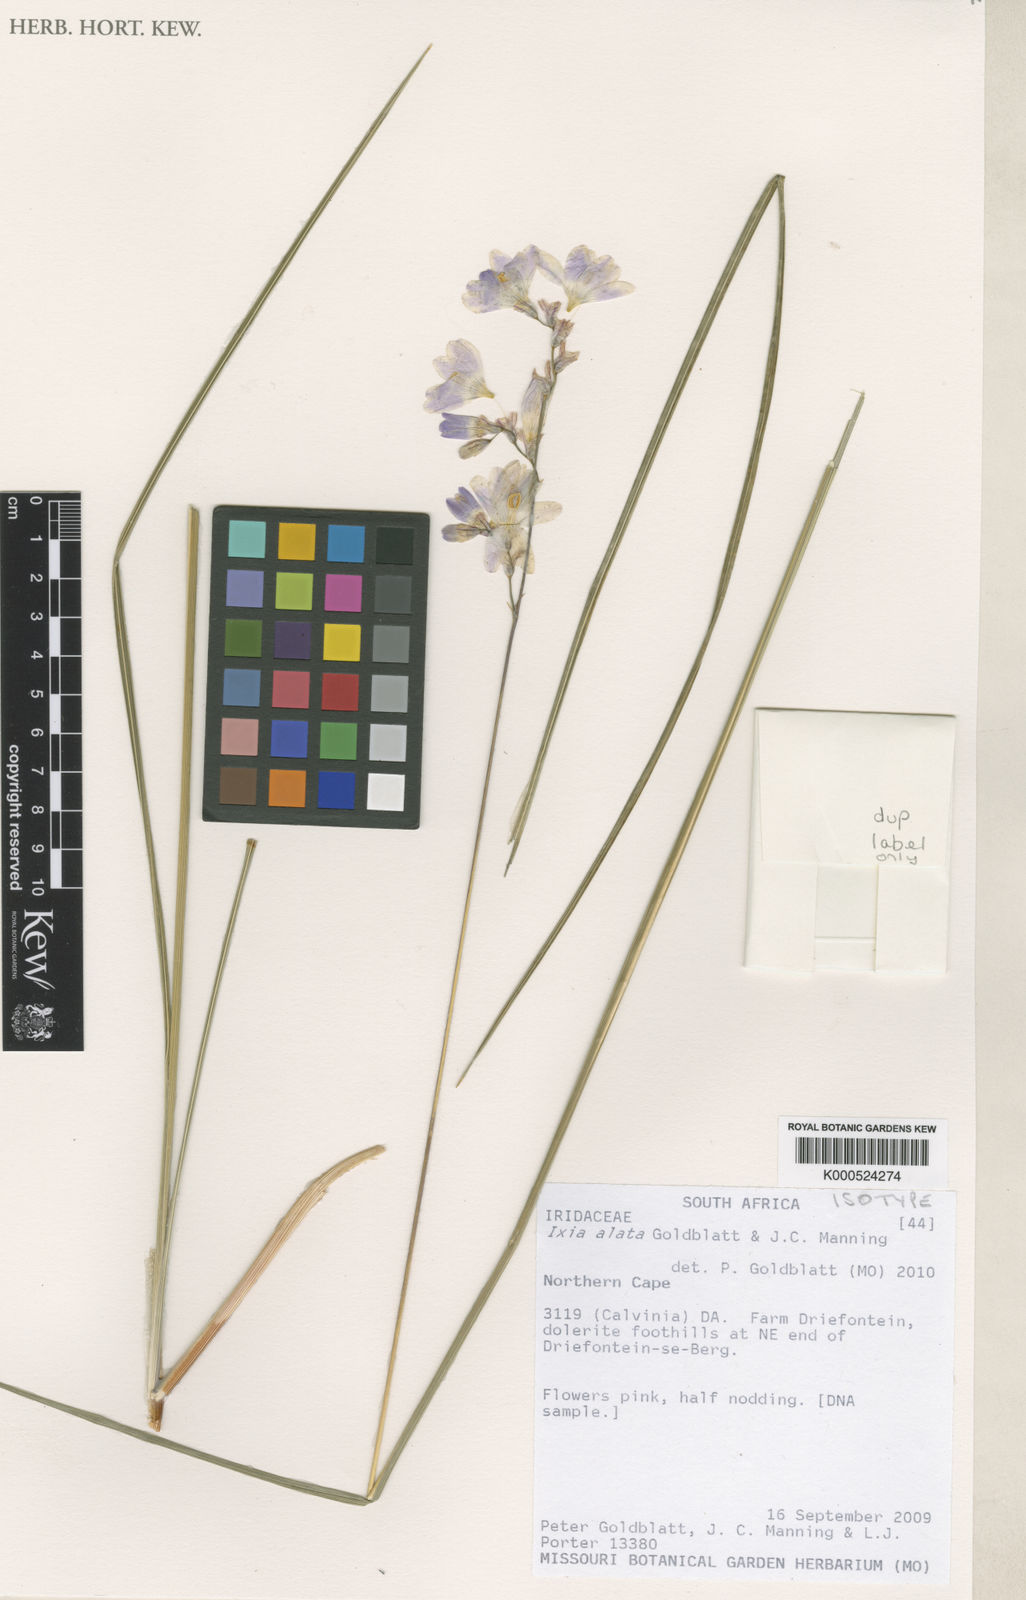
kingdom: Plantae
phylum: Tracheophyta
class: Liliopsida
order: Asparagales
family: Iridaceae
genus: Ixia
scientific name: Ixia alata
